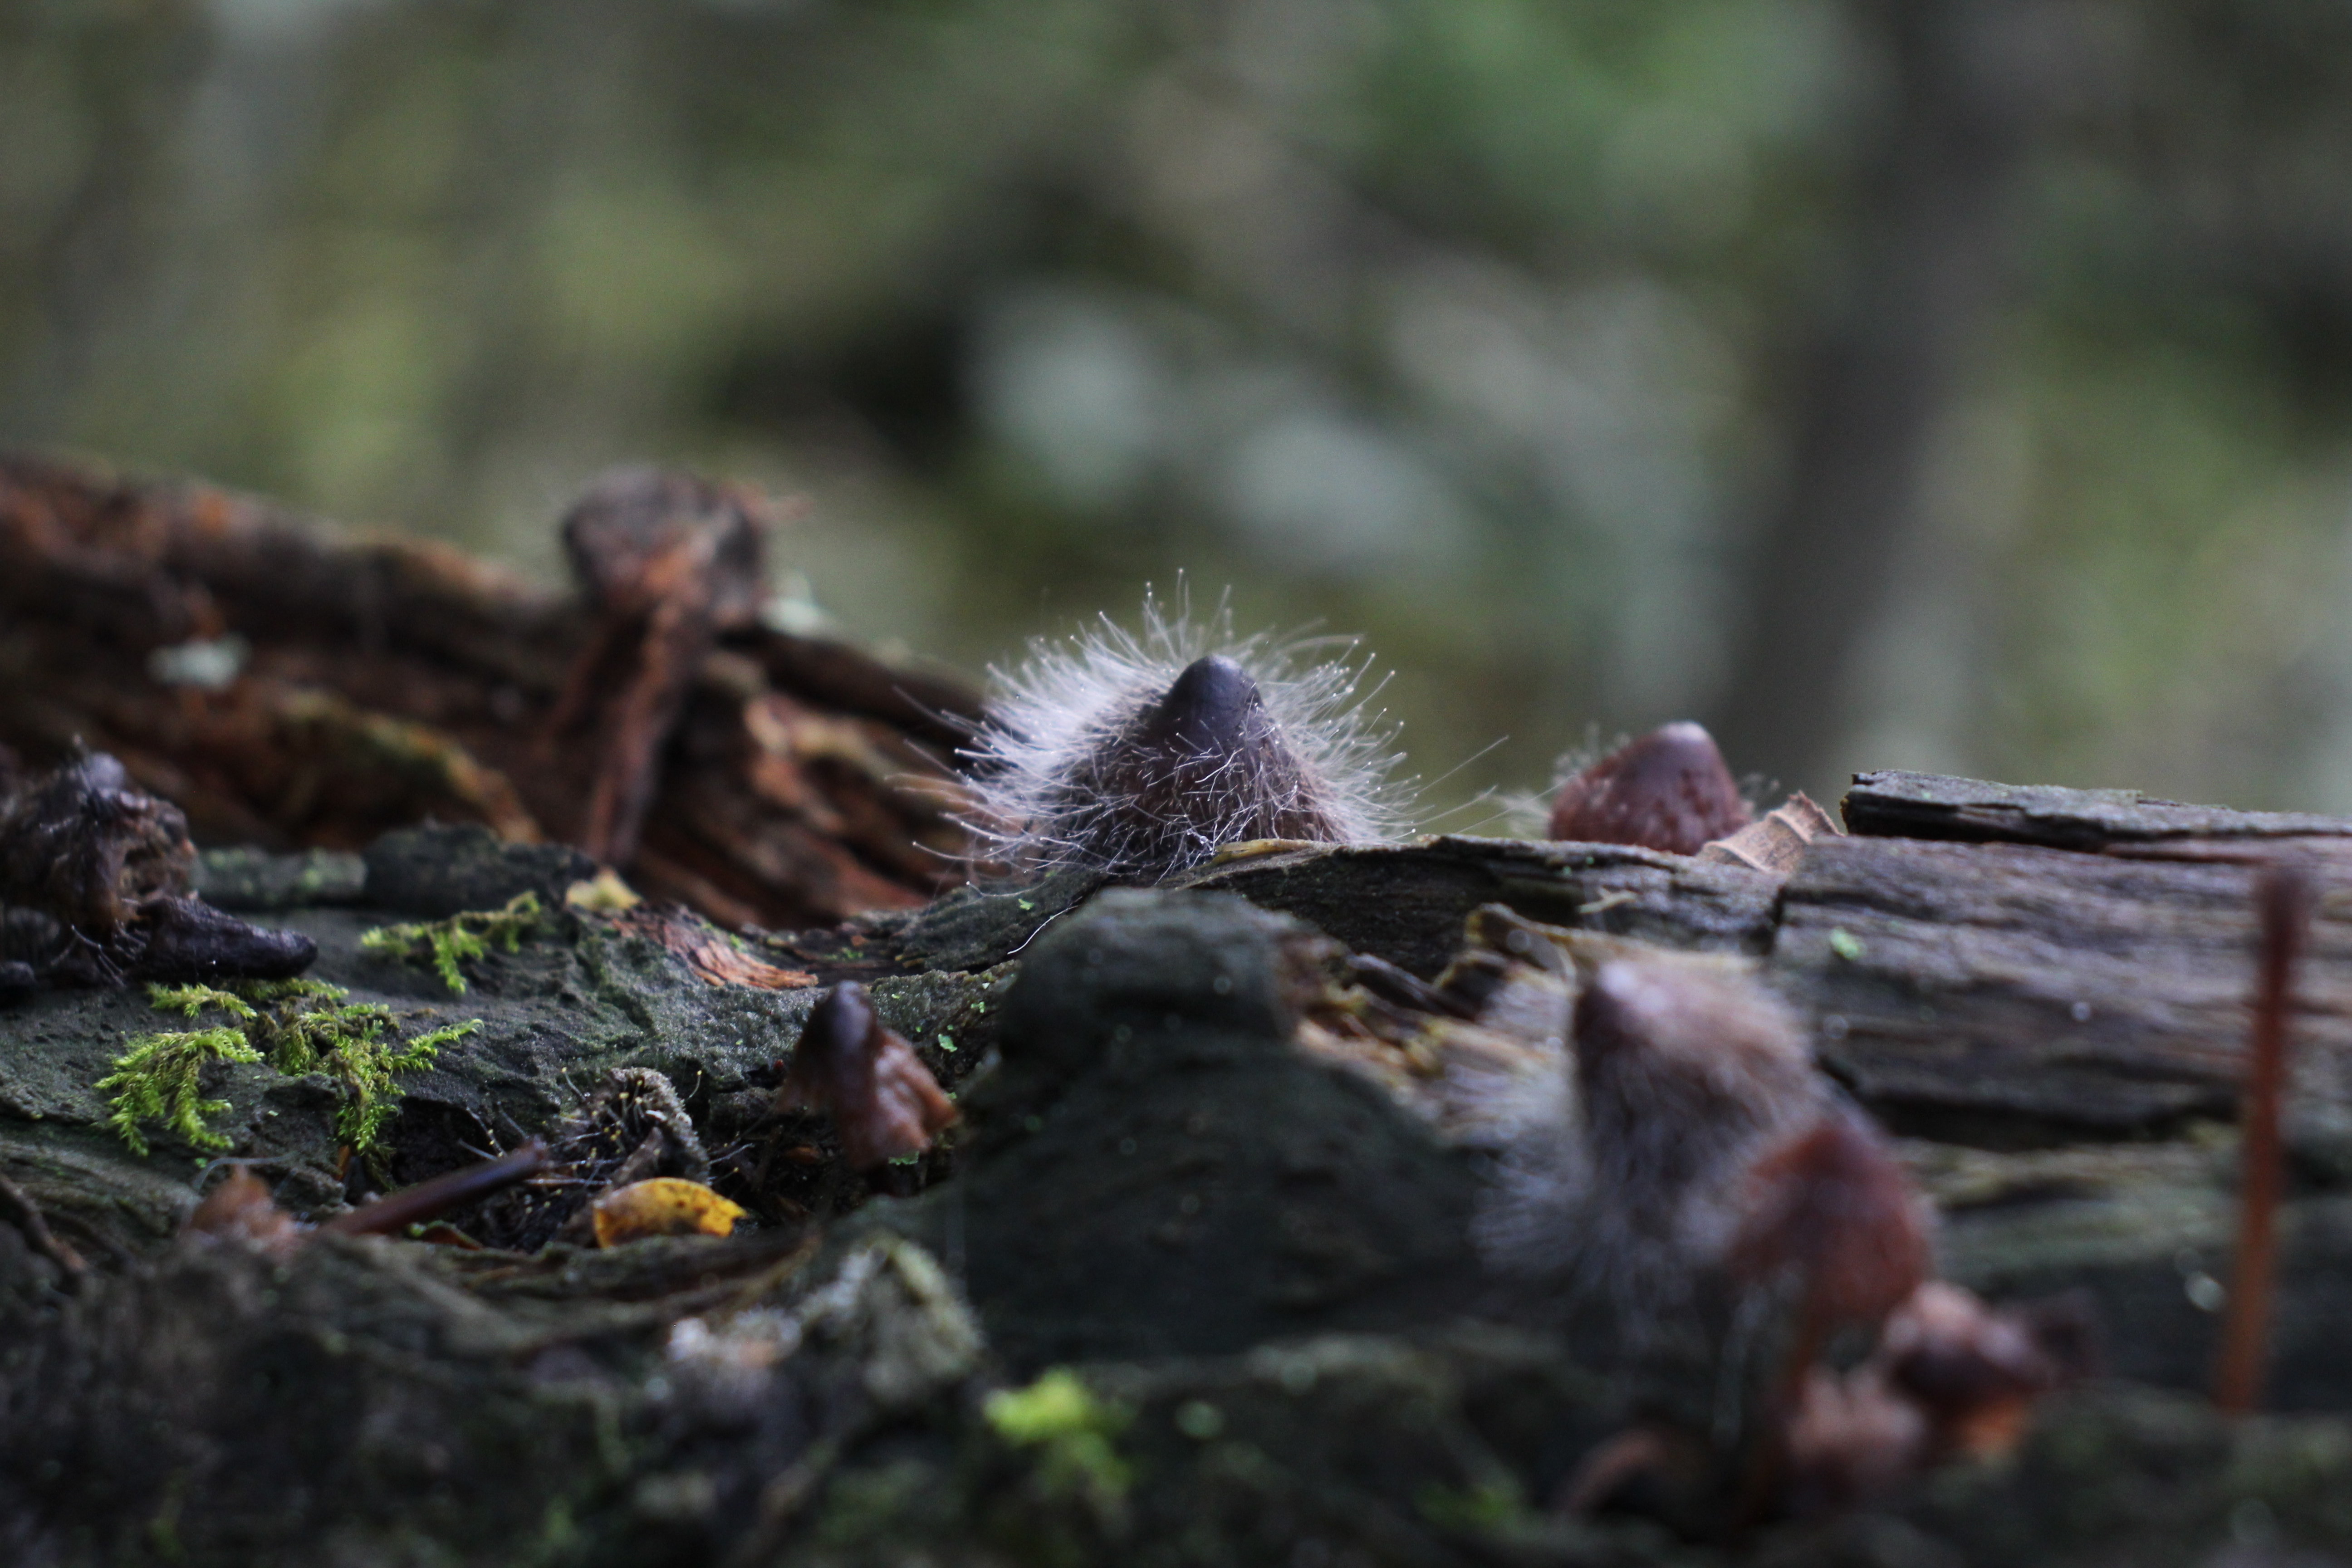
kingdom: Fungi
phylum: Mucoromycota
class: Mucoromycetes
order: Mucorales
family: Phycomycetaceae
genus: Spinellus
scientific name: Spinellus fusiger
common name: Bonnet mould
